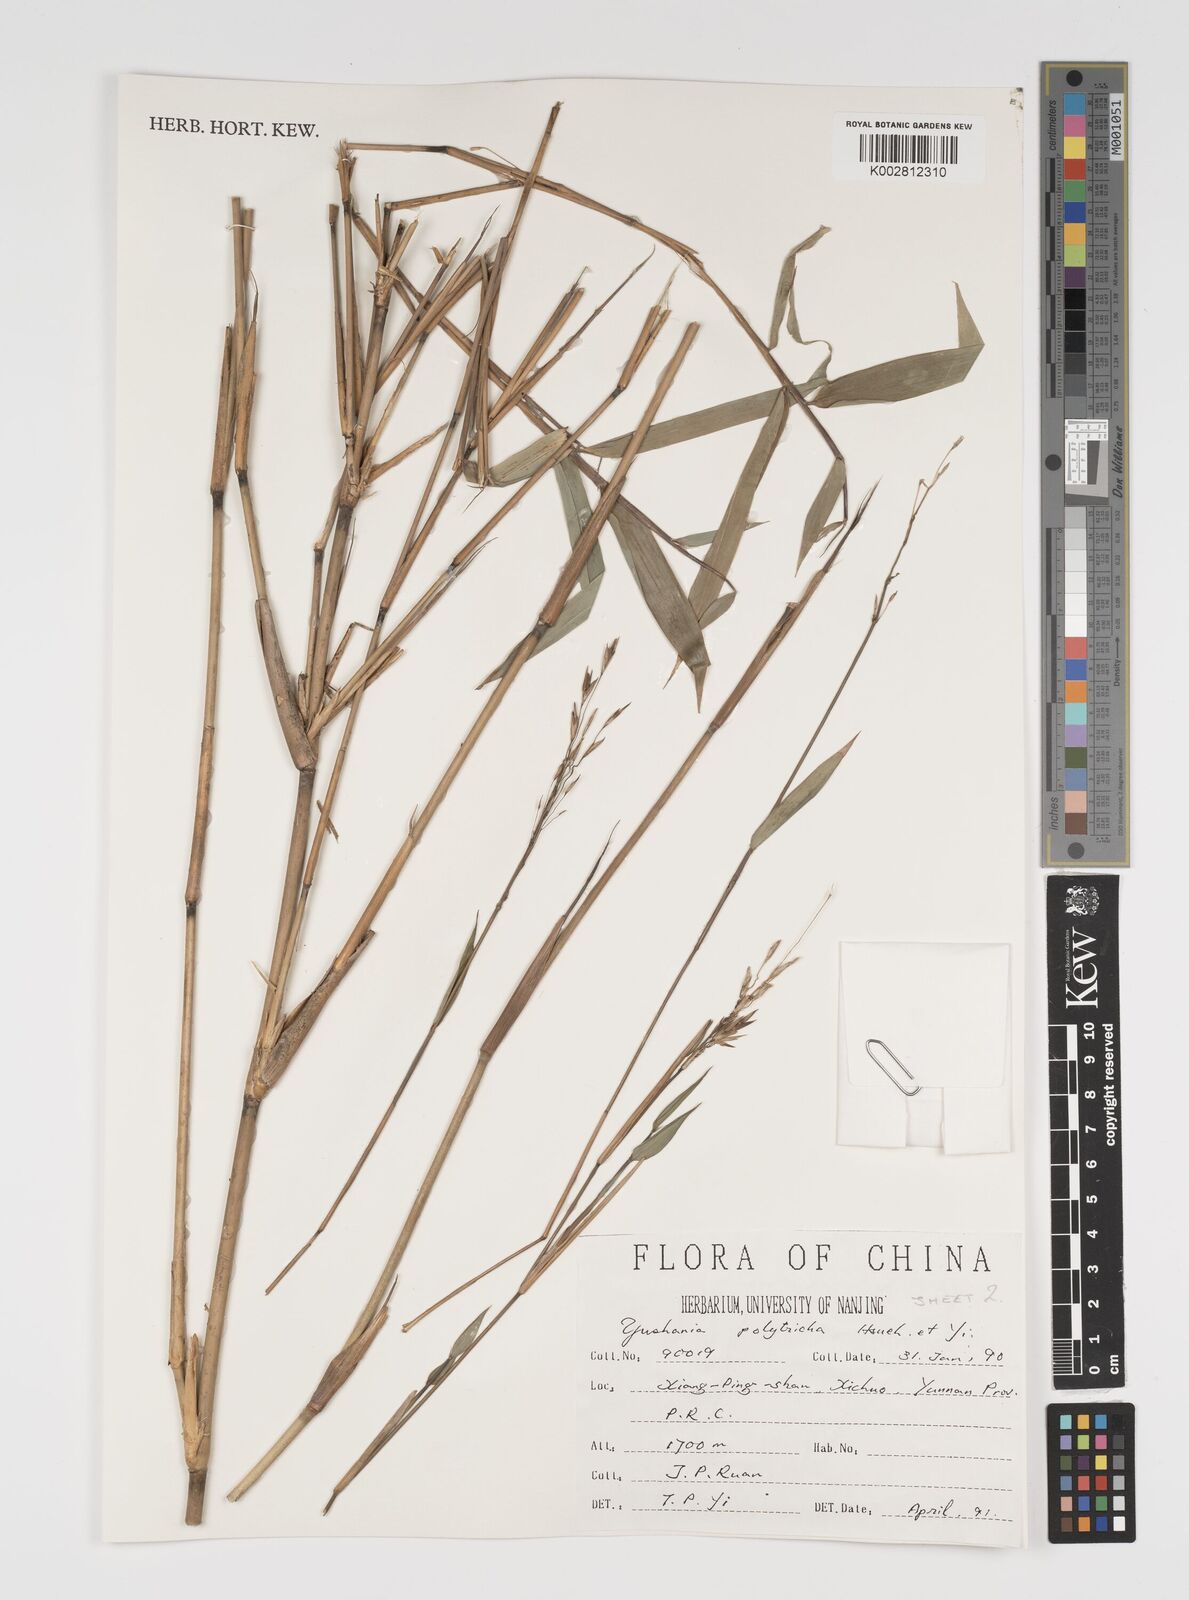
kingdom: Plantae
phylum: Tracheophyta
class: Liliopsida
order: Poales
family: Poaceae
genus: Yushania
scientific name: Yushania polytricha
